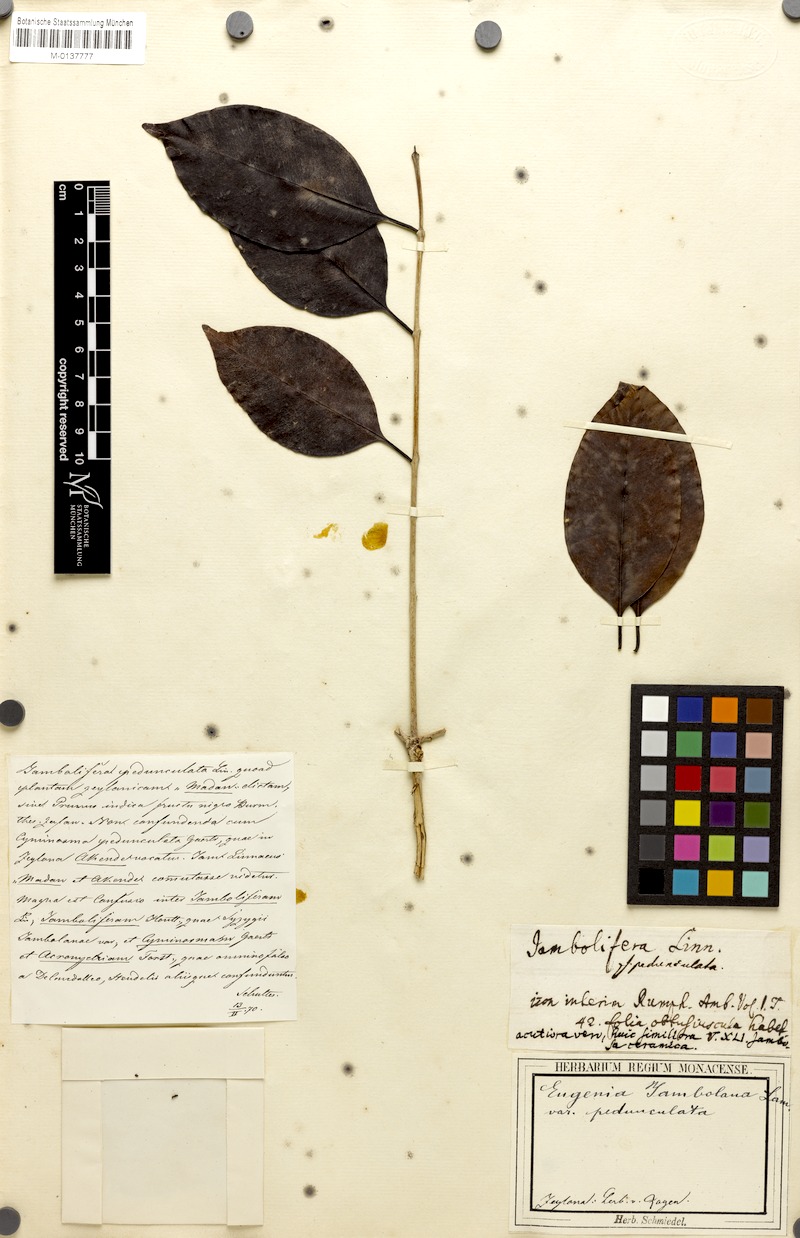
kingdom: Plantae
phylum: Tracheophyta
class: Magnoliopsida
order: Myrtales
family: Myrtaceae
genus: Syzygium
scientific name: Syzygium cumini
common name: Java plum
